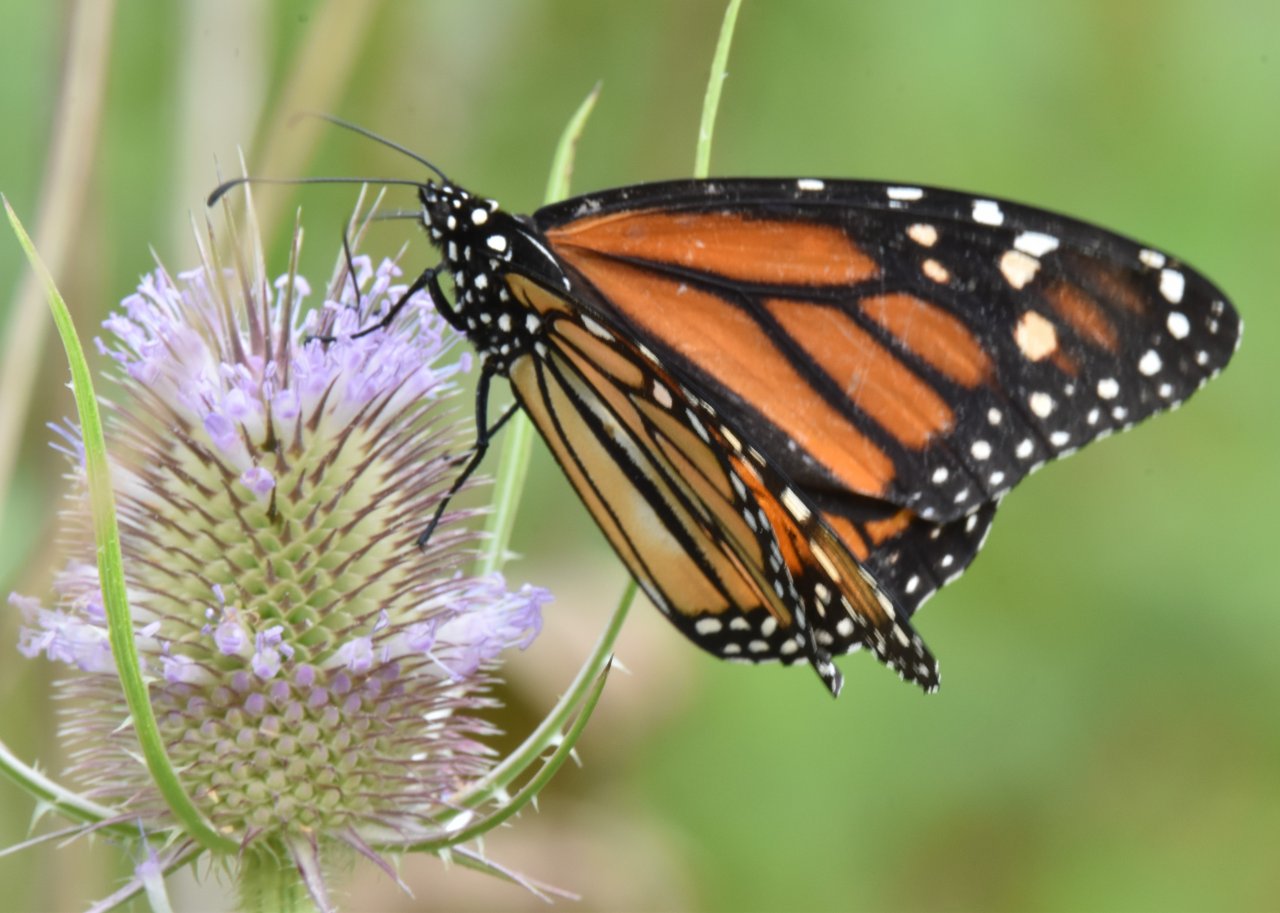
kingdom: Animalia
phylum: Arthropoda
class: Insecta
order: Lepidoptera
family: Nymphalidae
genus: Danaus
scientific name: Danaus plexippus
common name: Monarch
